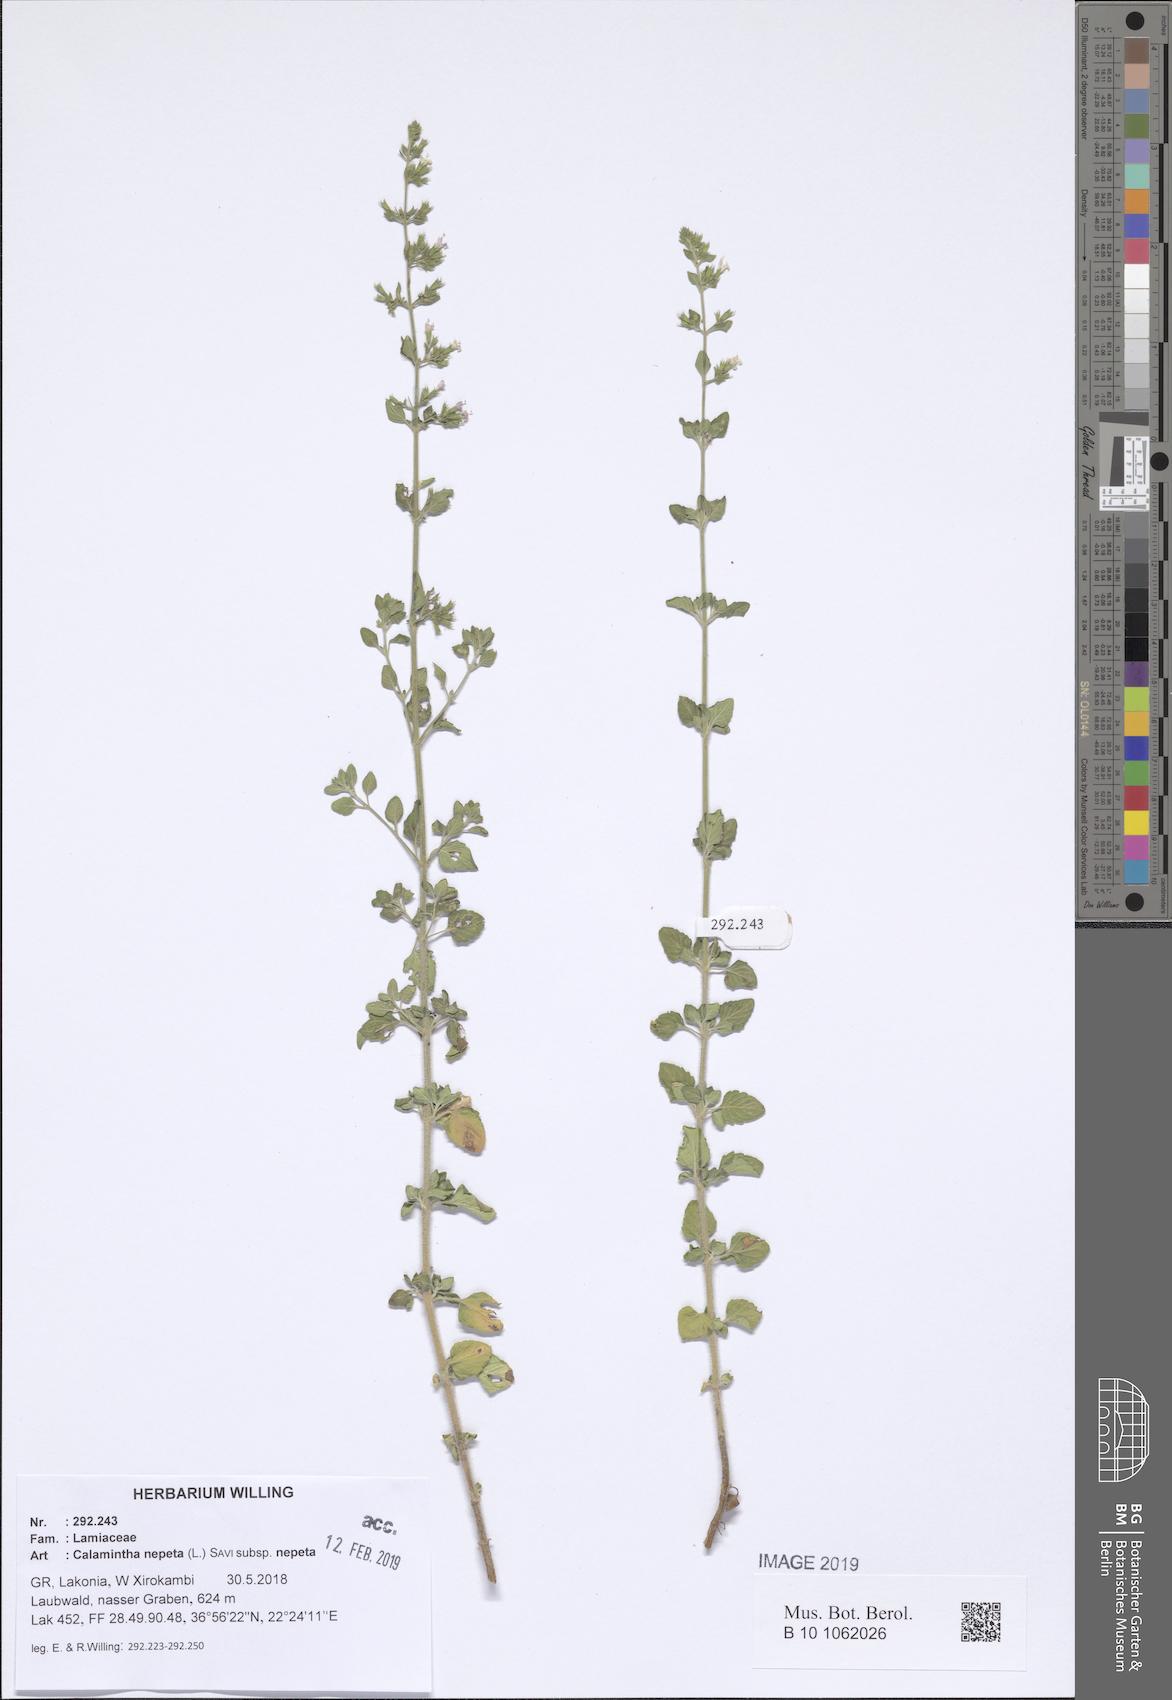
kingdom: Plantae
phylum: Tracheophyta
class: Magnoliopsida
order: Lamiales
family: Lamiaceae
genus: Clinopodium
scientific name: Clinopodium nepeta
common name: Lesser calamint
